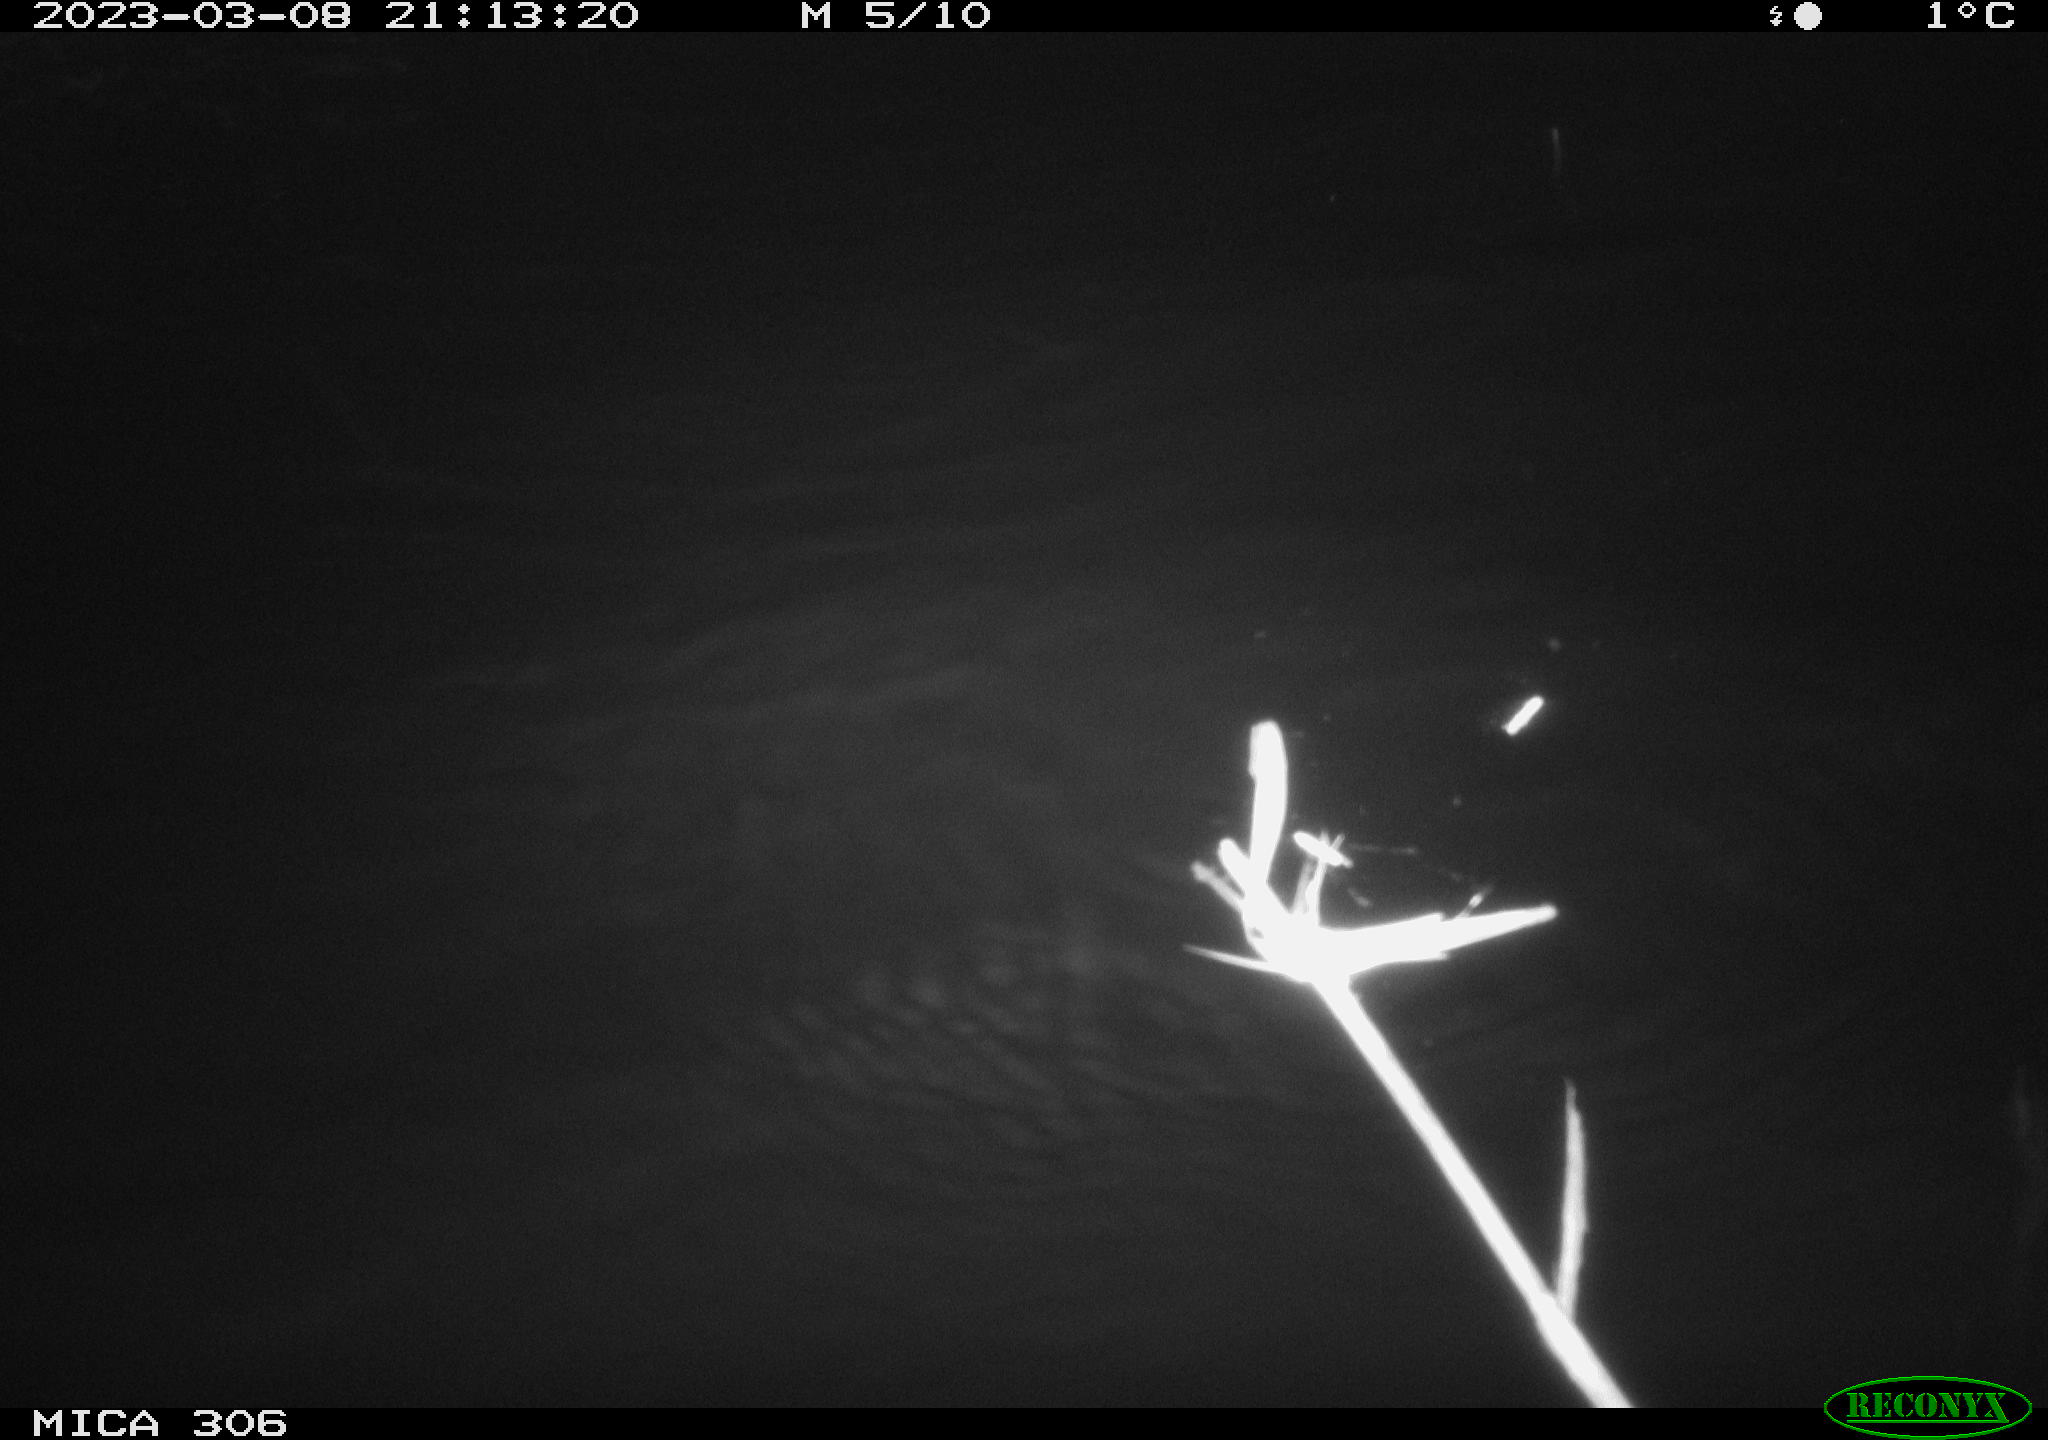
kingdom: Animalia
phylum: Chordata
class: Mammalia
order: Rodentia
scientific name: Rodentia
